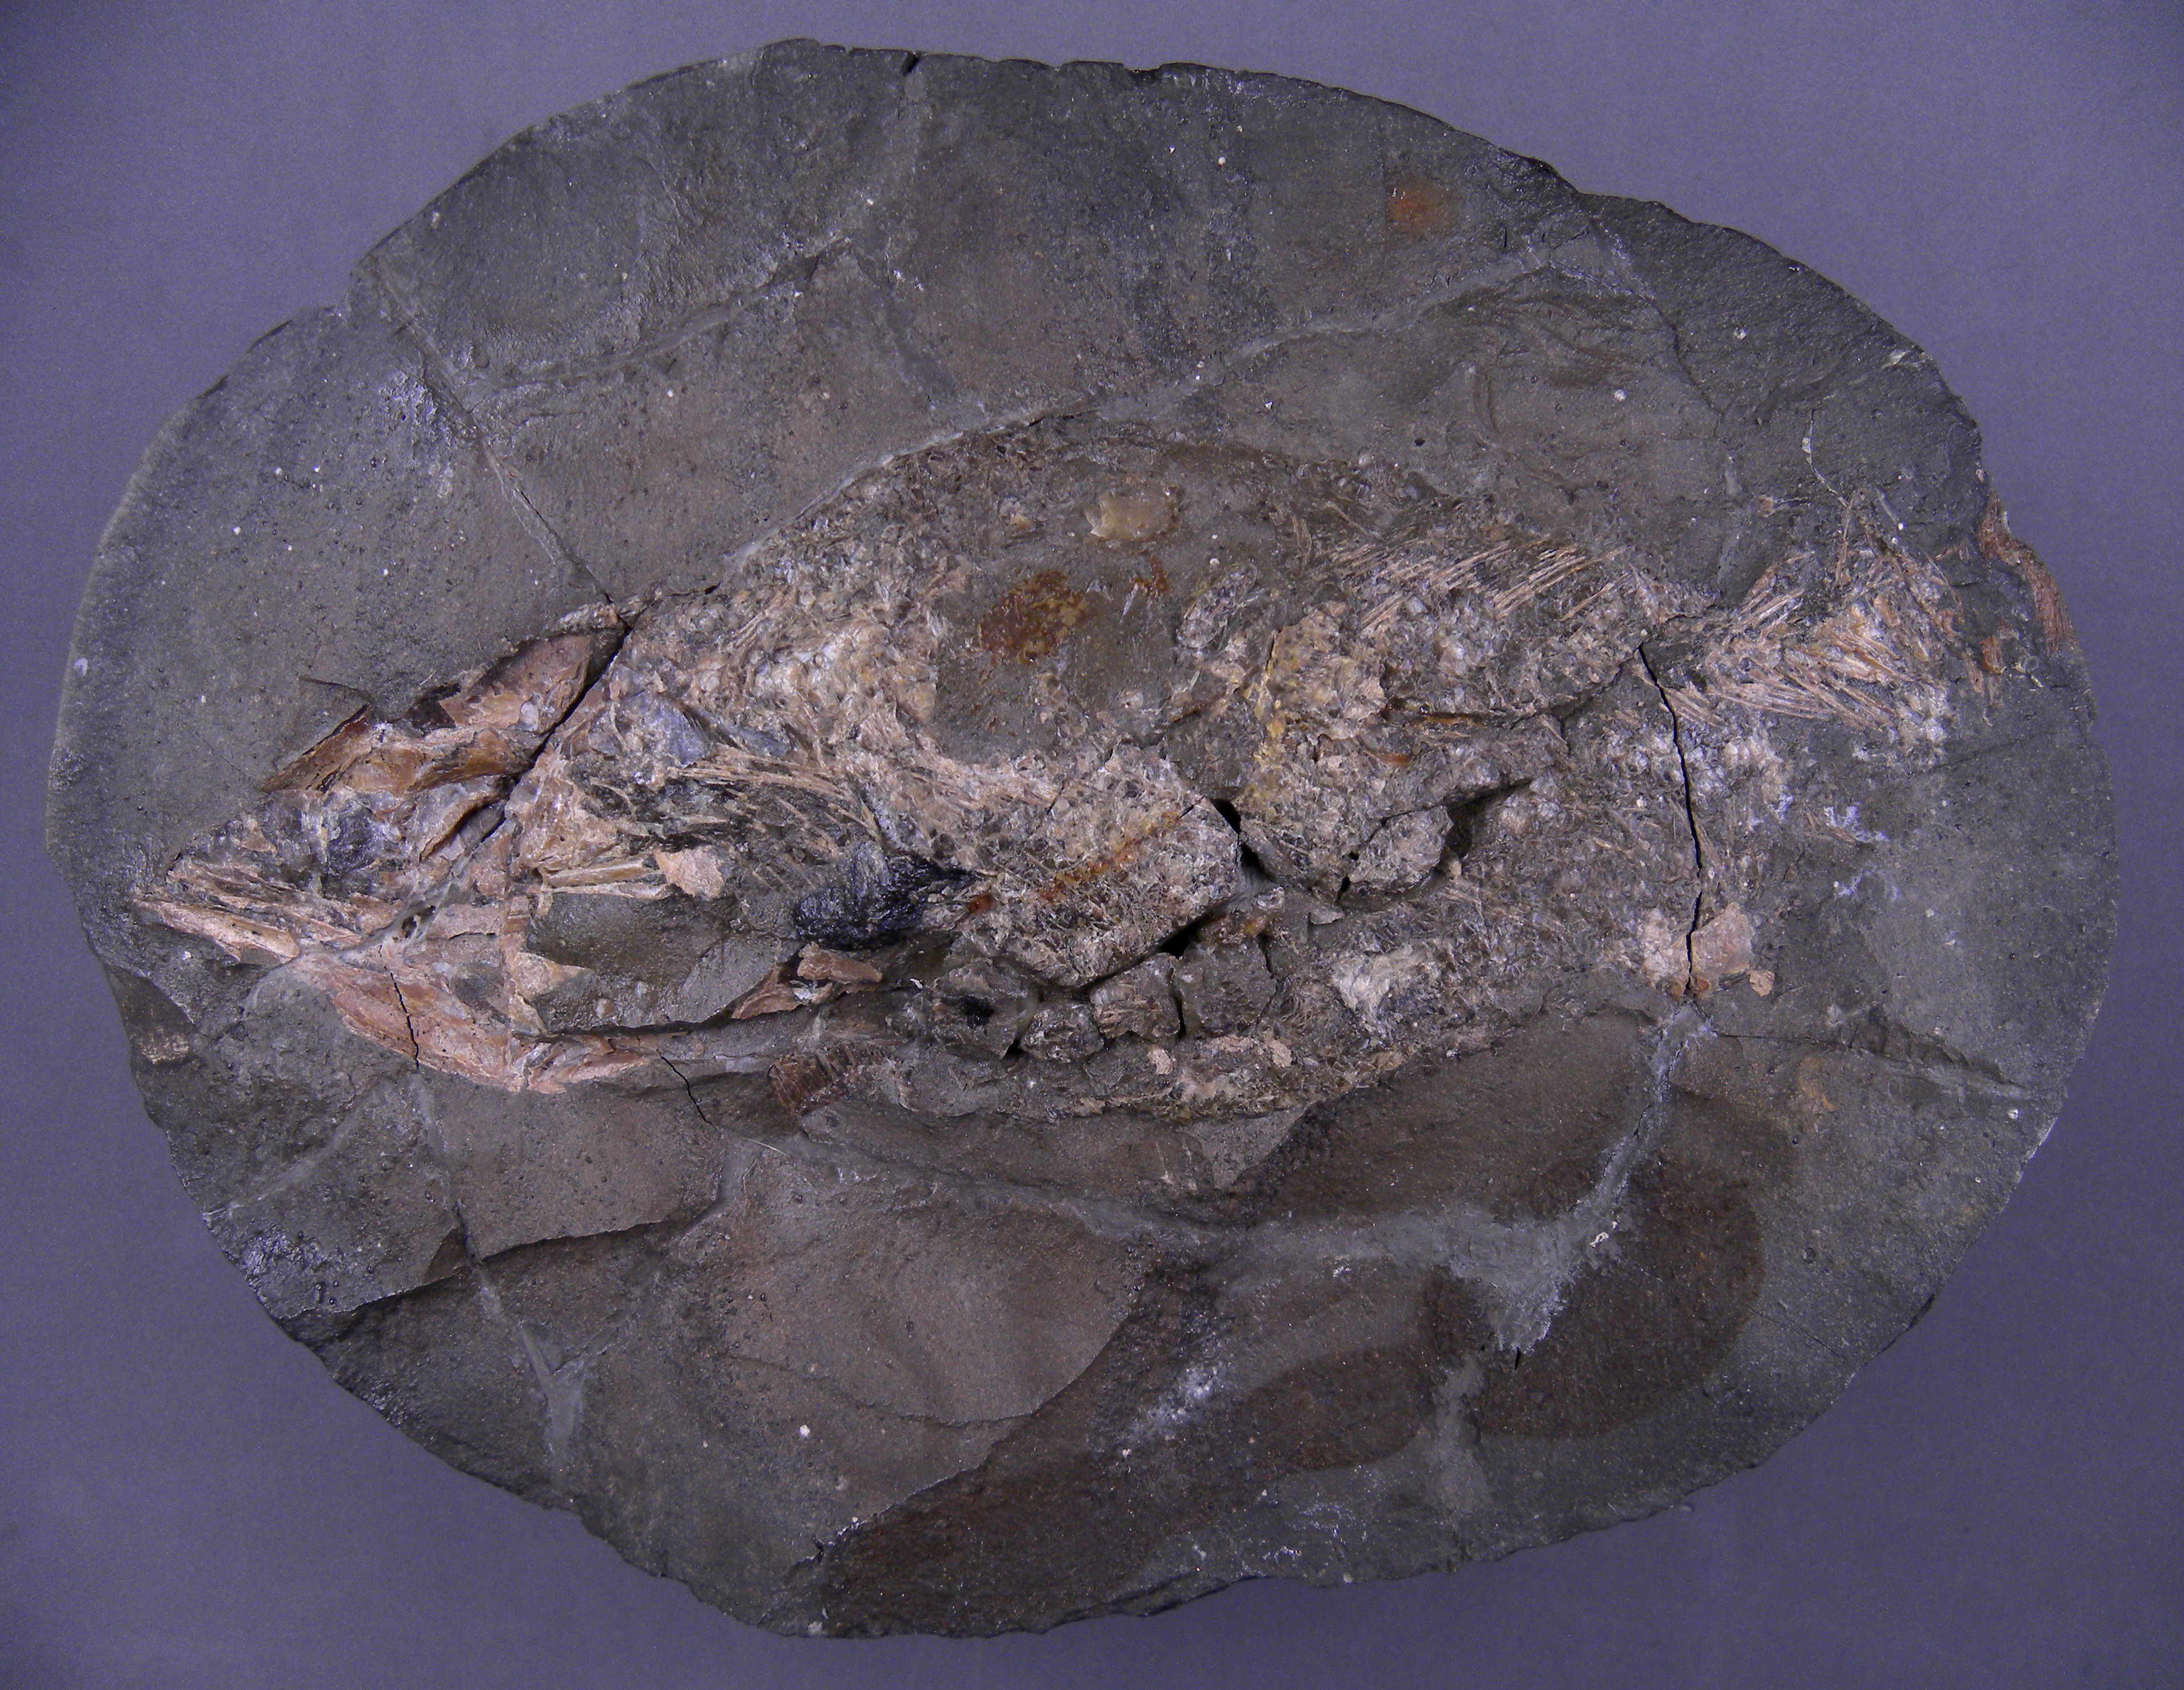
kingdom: Animalia
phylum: Chordata
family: Pachycormidae
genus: Pachycormus
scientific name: Pachycormus macropterus
